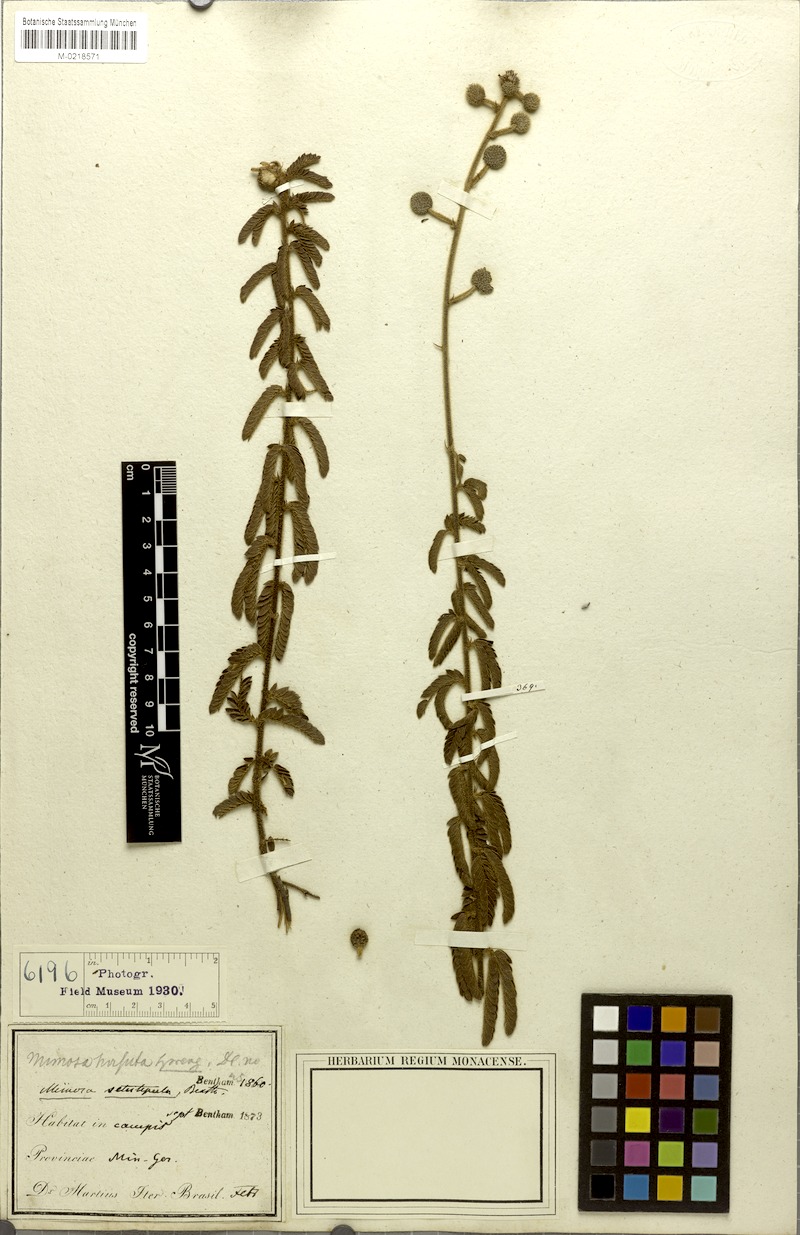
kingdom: Plantae
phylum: Tracheophyta
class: Magnoliopsida
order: Fabales
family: Fabaceae
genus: Mimosa
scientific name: Mimosa setistipula
